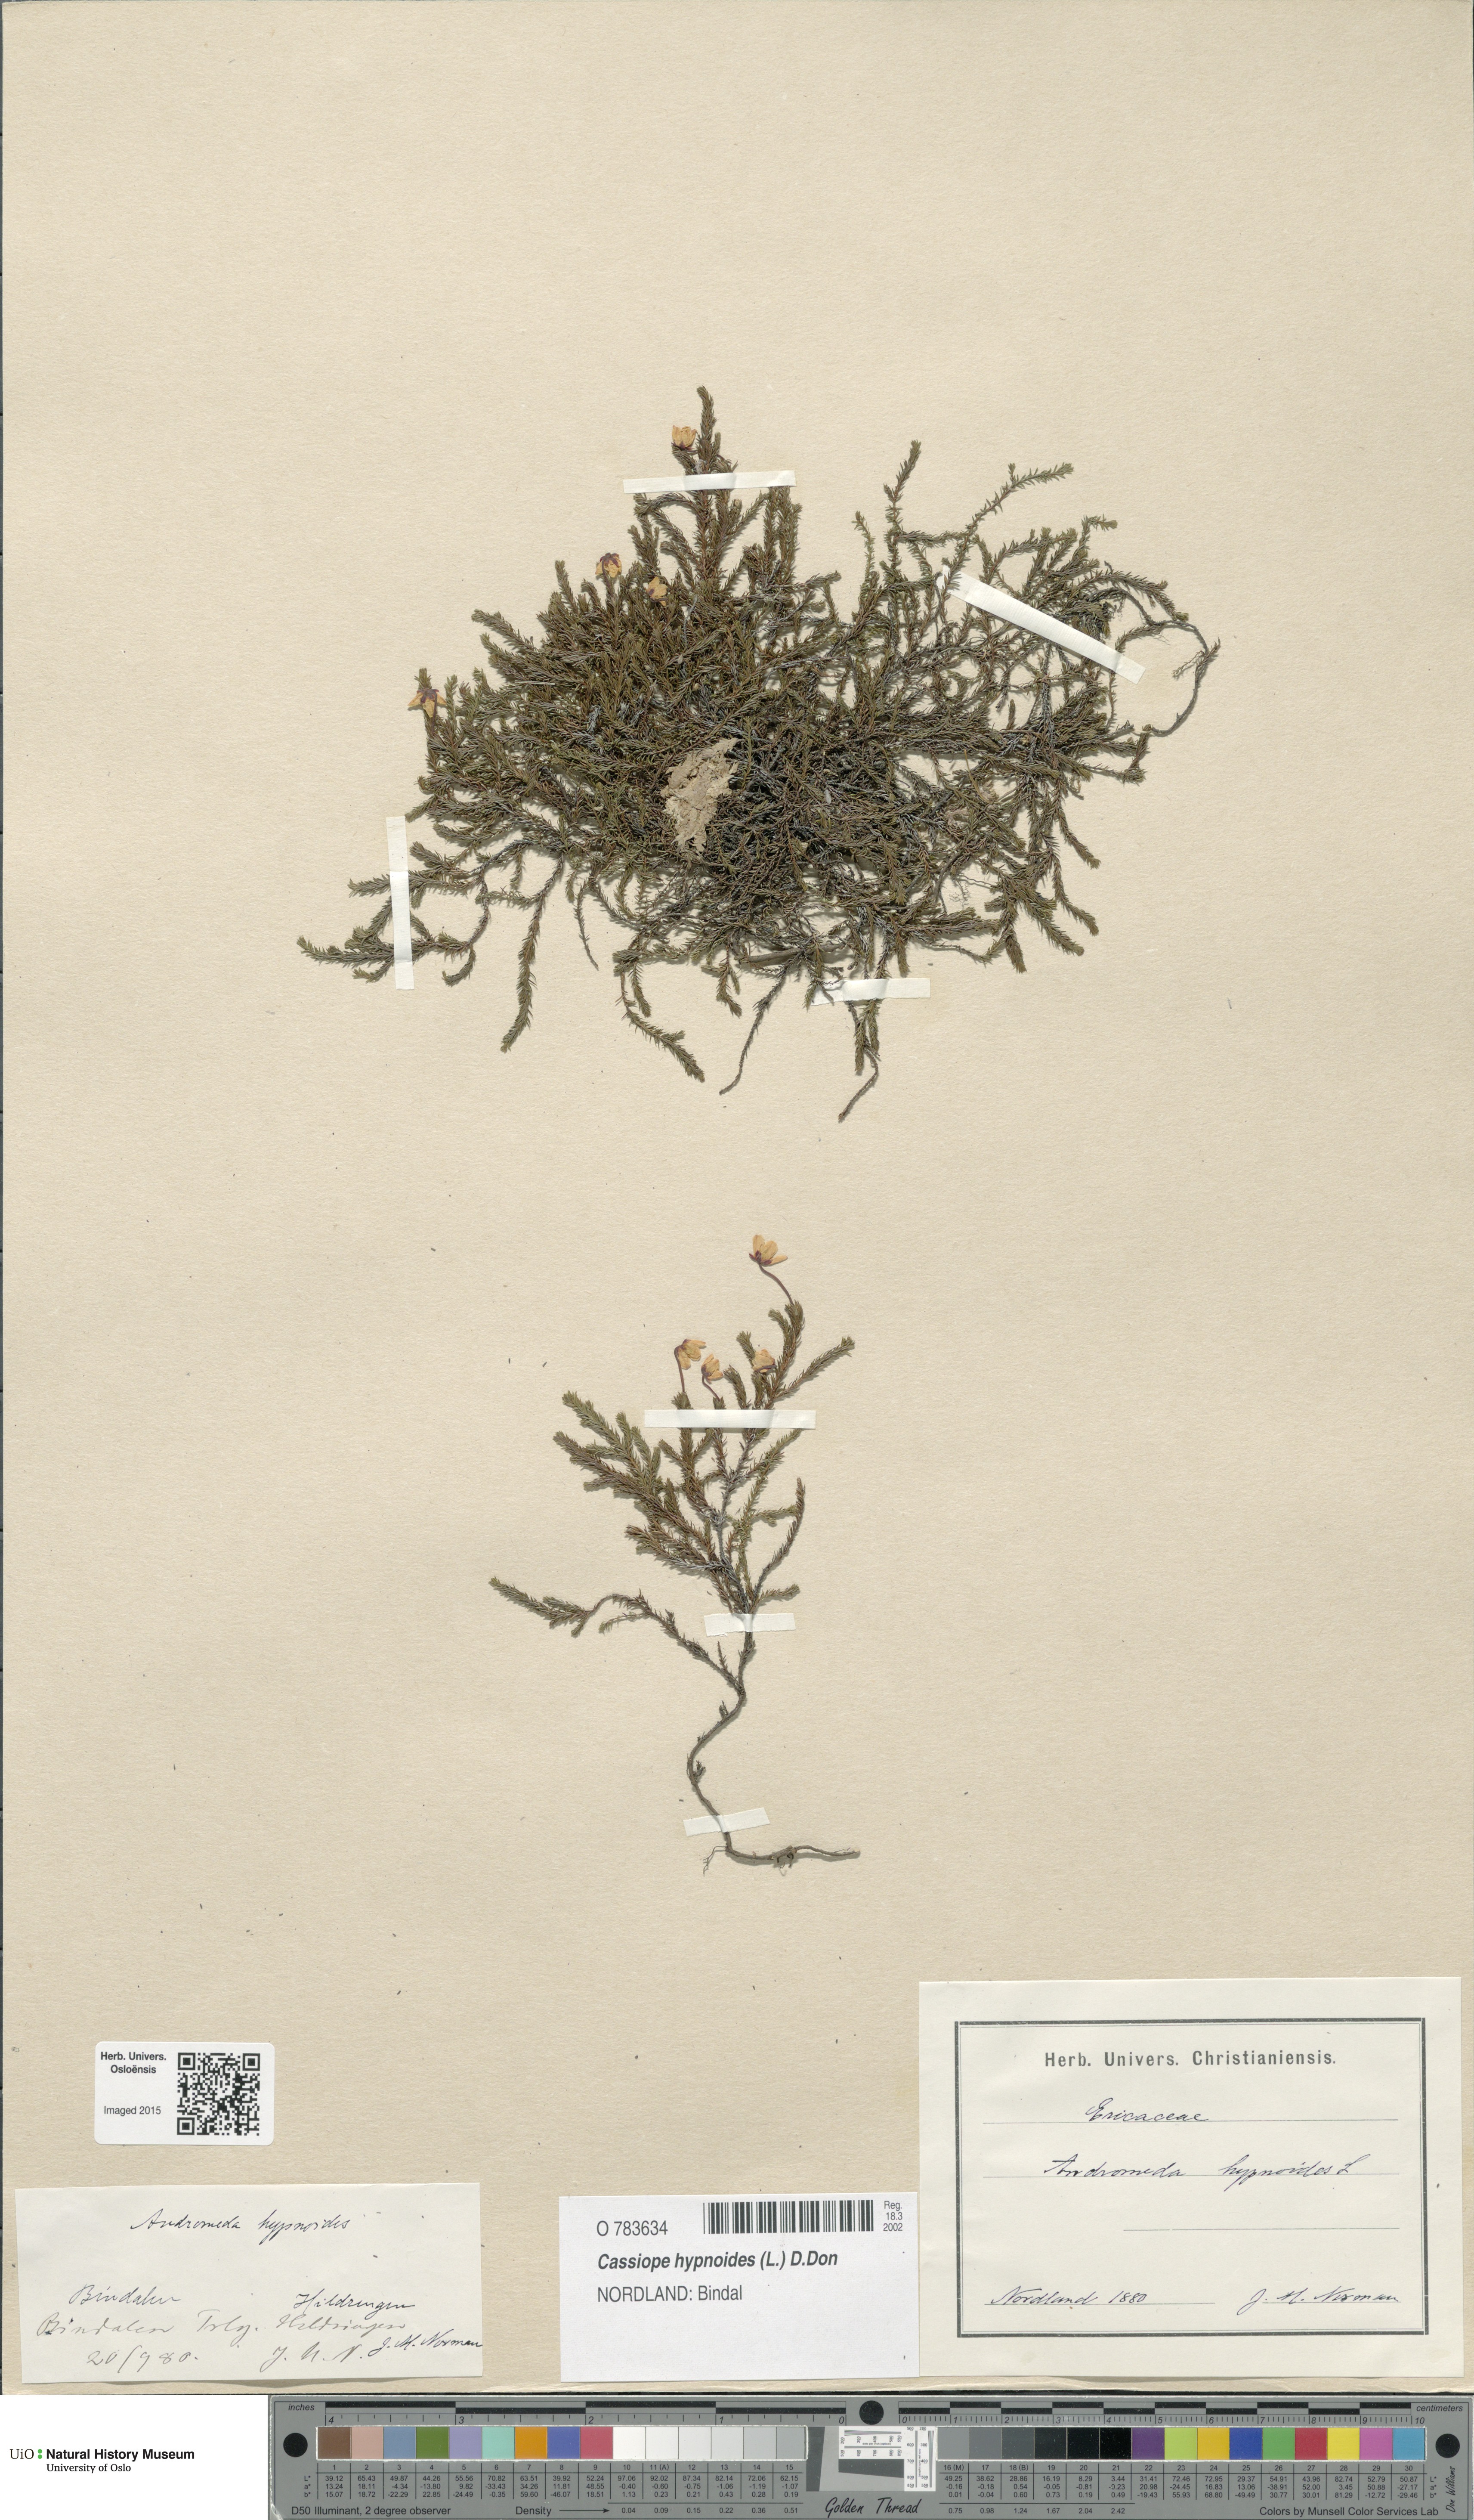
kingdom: Plantae
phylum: Tracheophyta
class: Magnoliopsida
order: Ericales
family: Ericaceae
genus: Harrimanella
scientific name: Harrimanella hypnoides
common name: Moss bell heather
